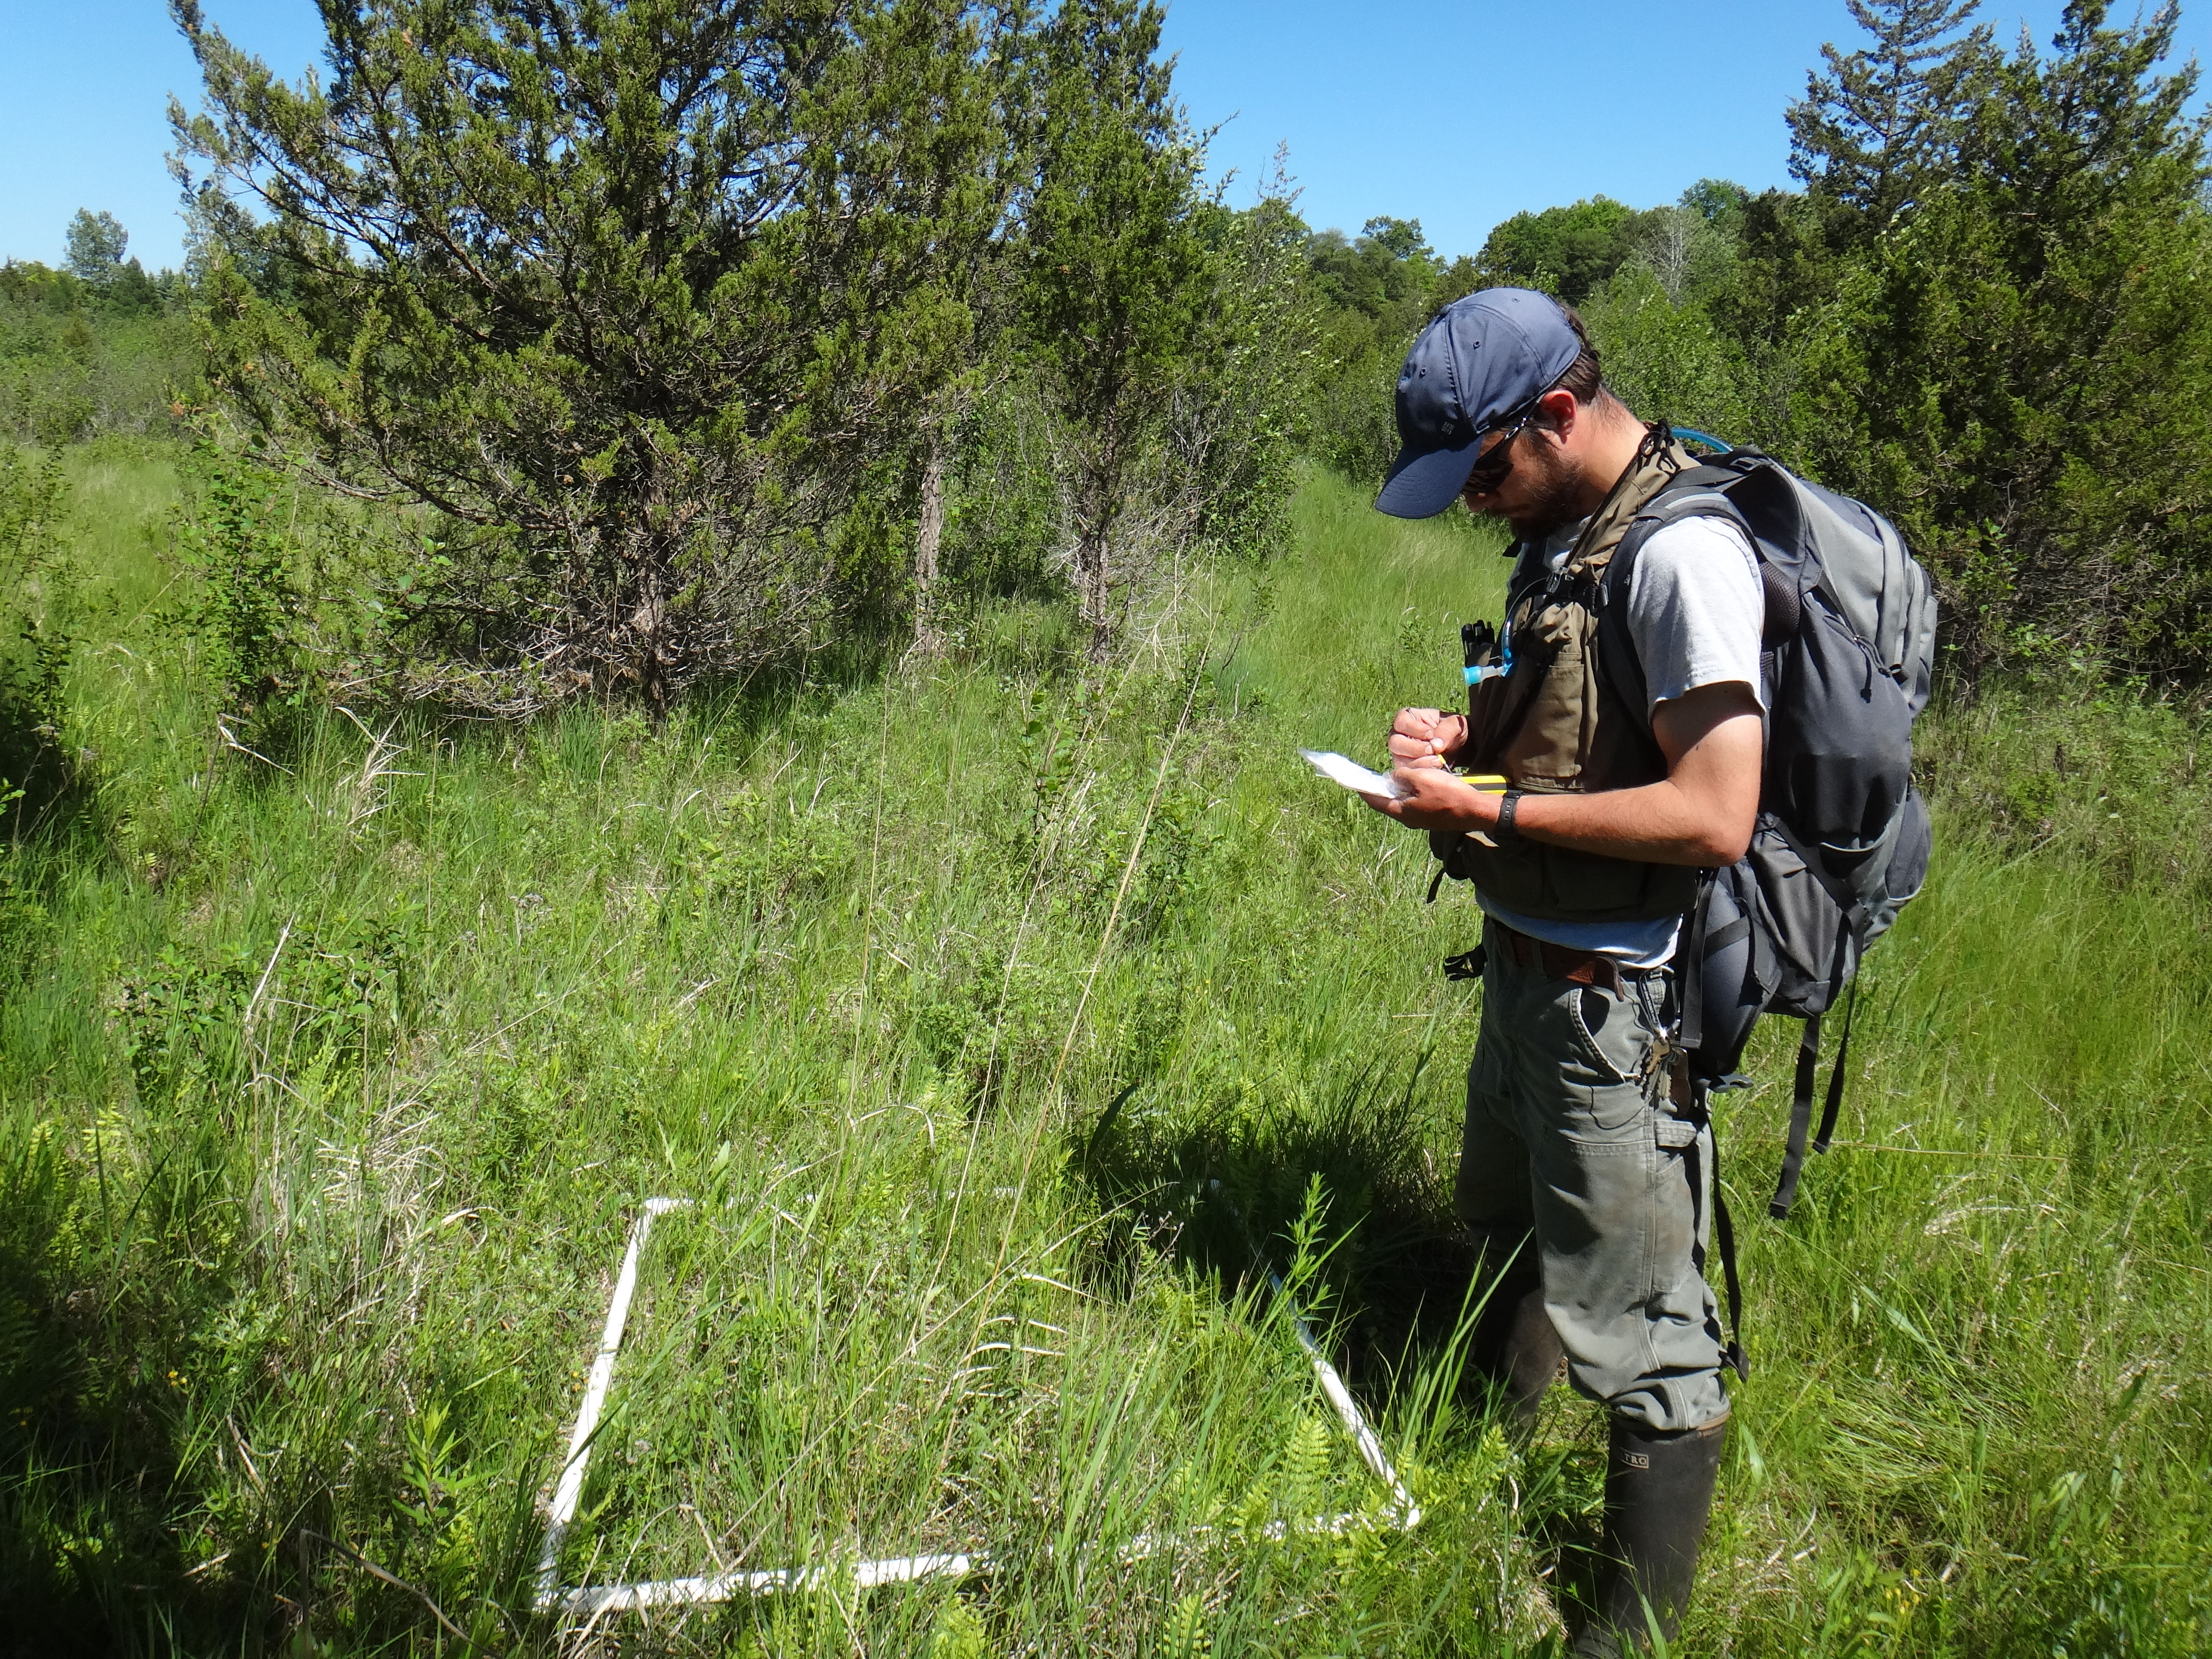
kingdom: Plantae
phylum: Tracheophyta
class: Polypodiopsida
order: Equisetales
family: Equisetaceae
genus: Equisetum
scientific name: Equisetum fluviatile
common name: Water horsetail
